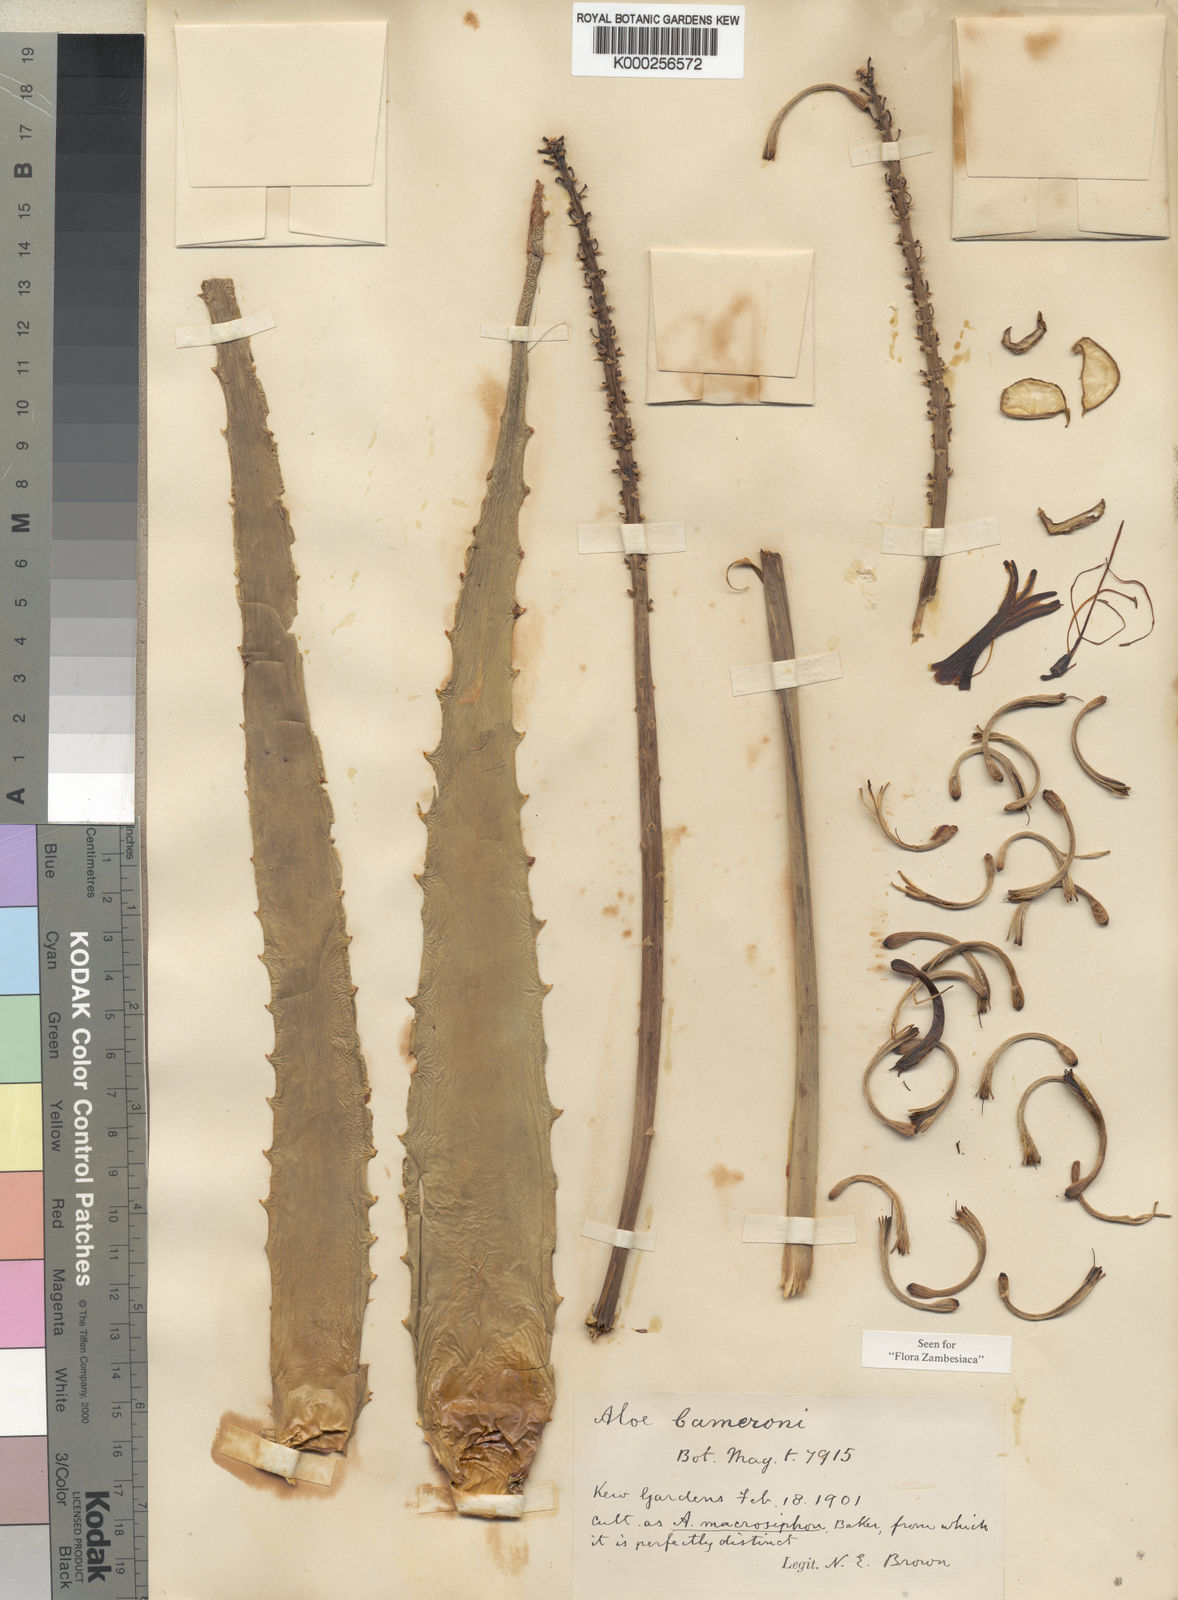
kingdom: Plantae
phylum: Tracheophyta
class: Liliopsida
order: Asparagales
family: Asphodelaceae
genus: Aloe
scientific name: Aloe cameronii
